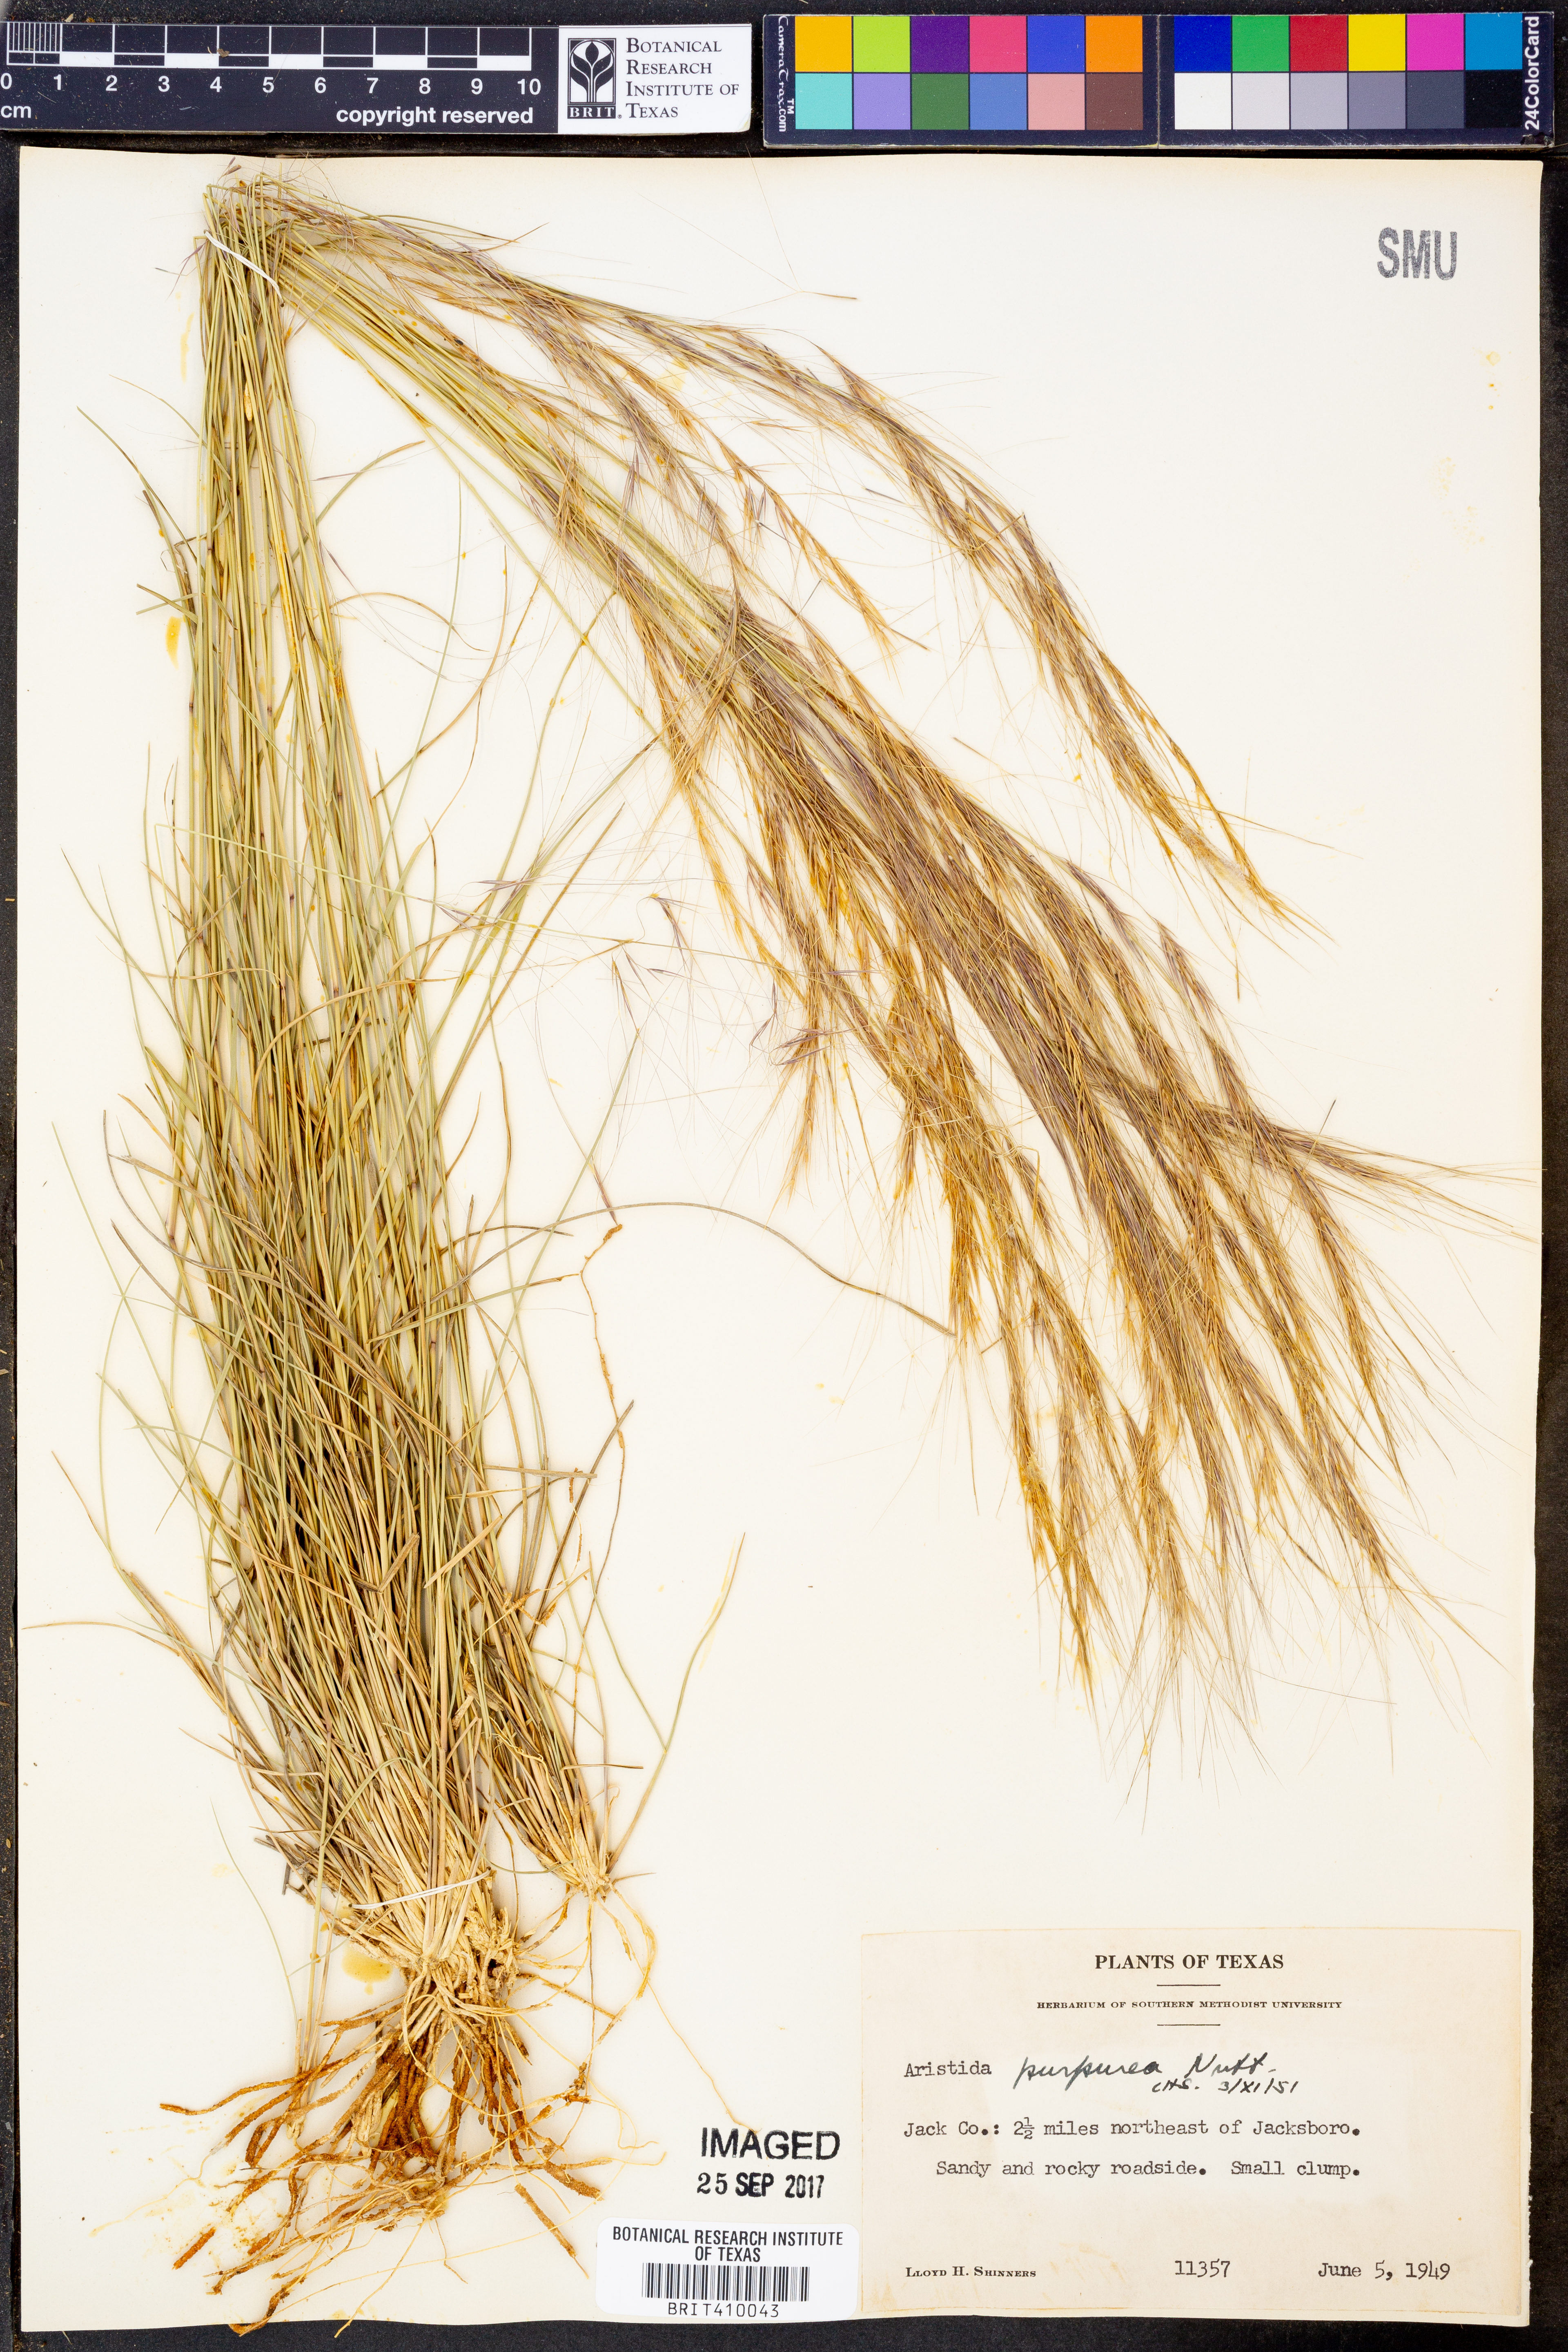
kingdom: Plantae
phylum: Tracheophyta
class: Liliopsida
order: Poales
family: Poaceae
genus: Aristida
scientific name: Aristida purpurea
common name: Purple threeawn
